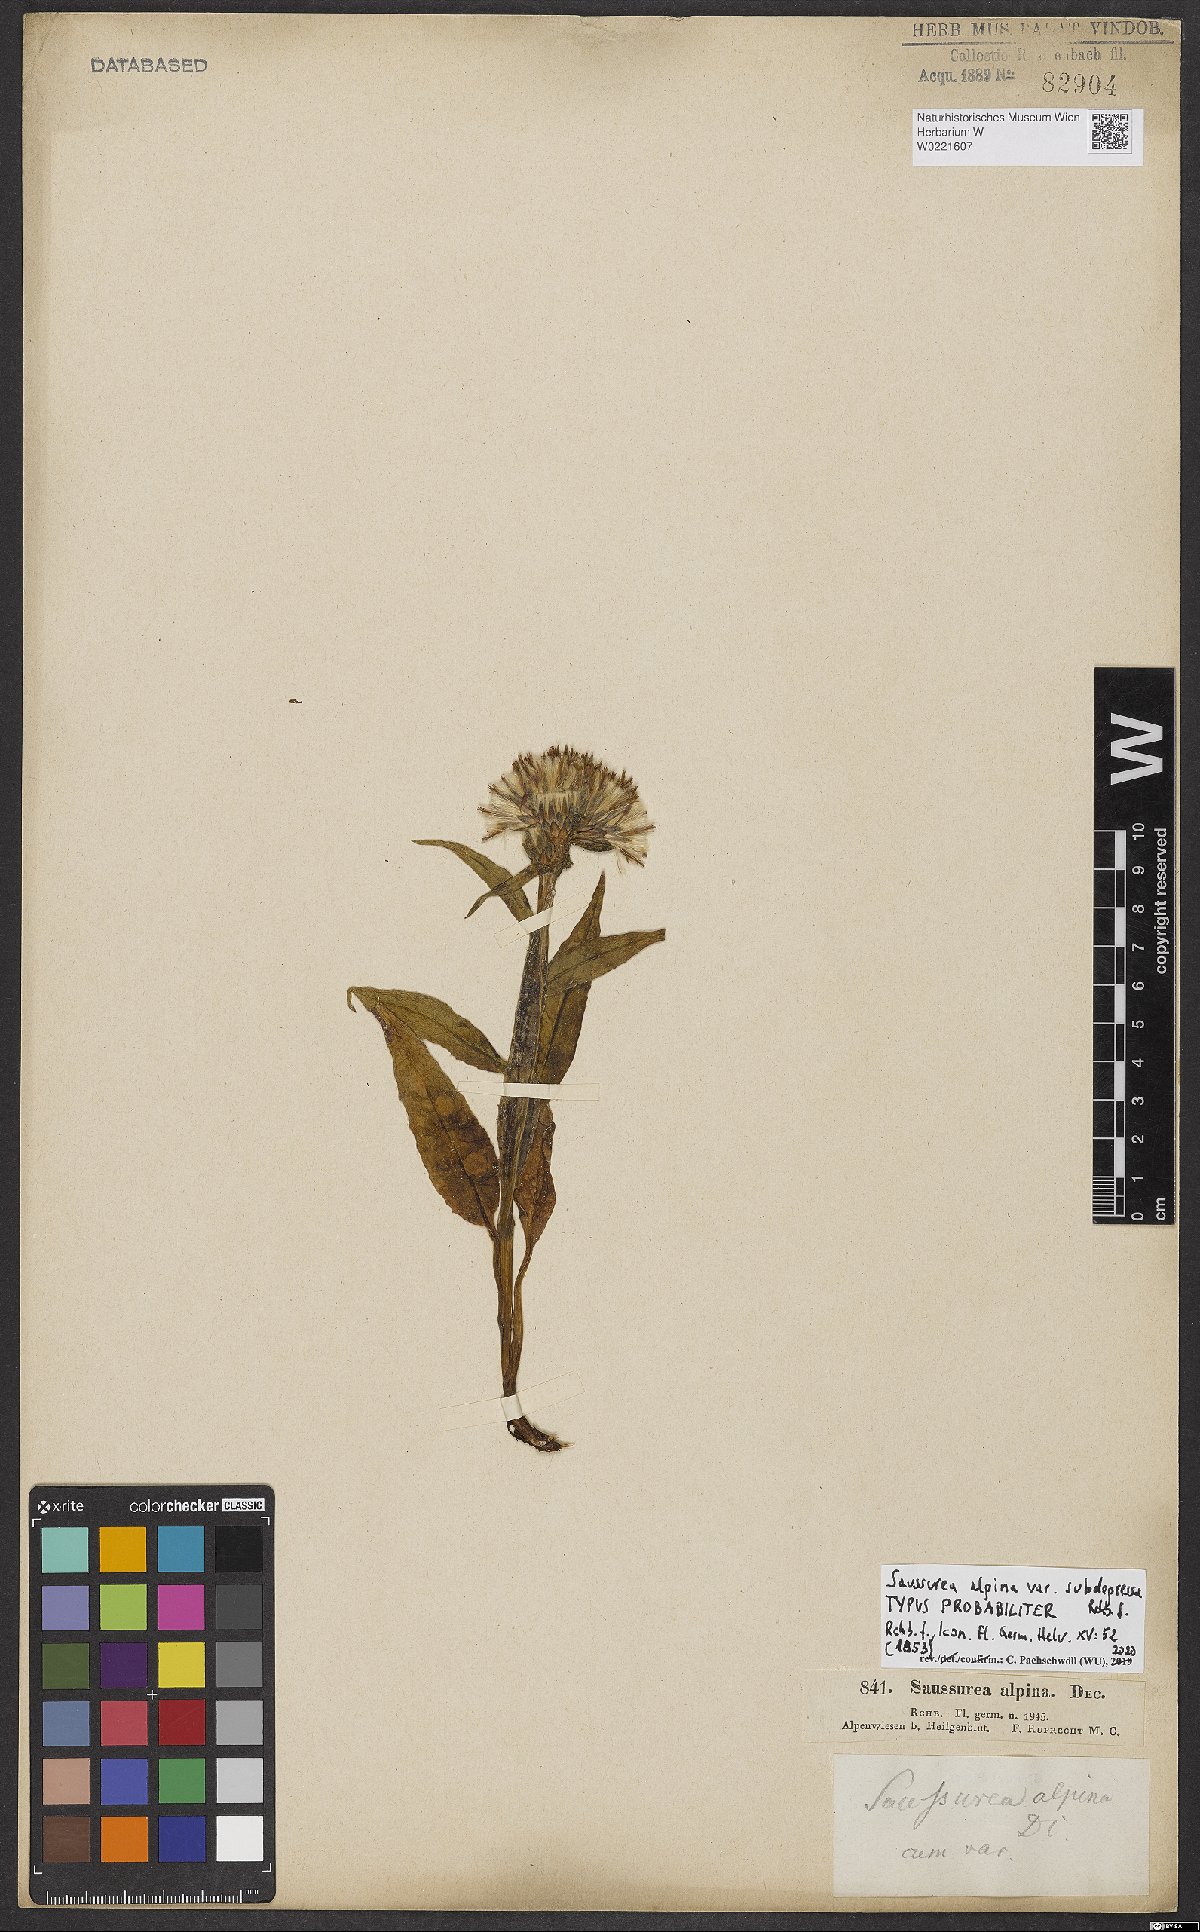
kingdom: Plantae
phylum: Tracheophyta
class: Magnoliopsida
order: Asterales
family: Asteraceae
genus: Saussurea
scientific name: Saussurea alpina
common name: Alpine saw-wort
